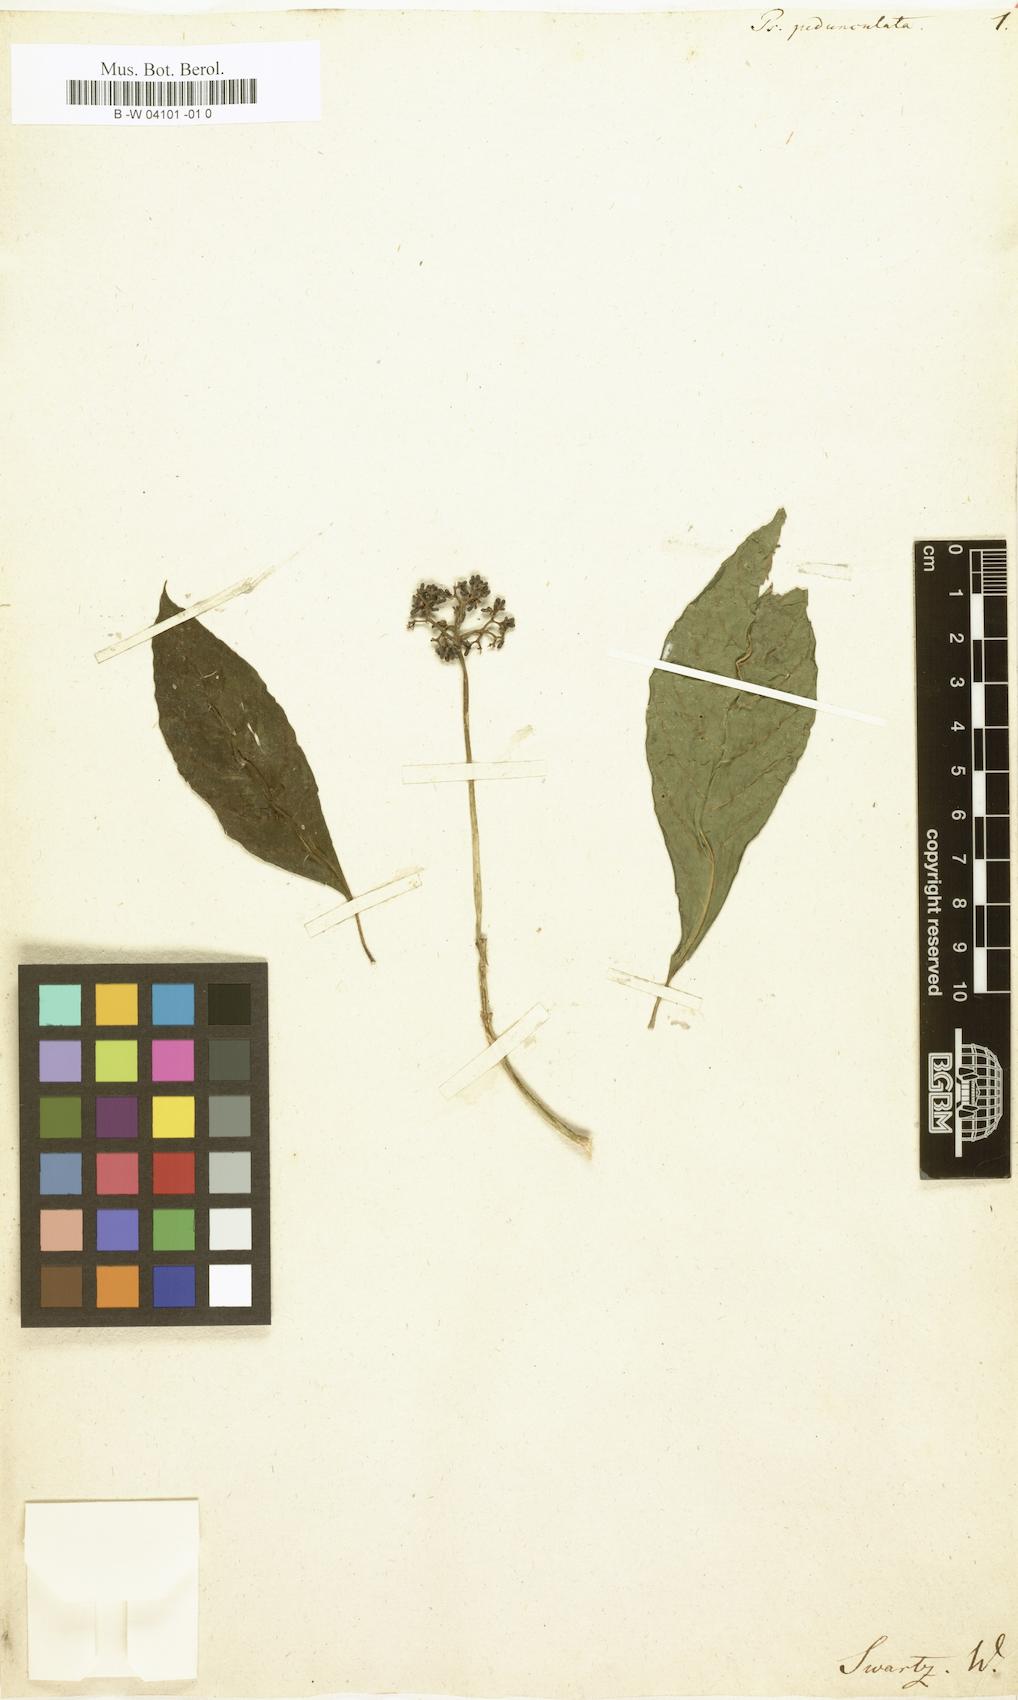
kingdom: Plantae
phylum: Tracheophyta
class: Magnoliopsida
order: Gentianales
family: Rubiaceae
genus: Palicourea
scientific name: Palicourea
